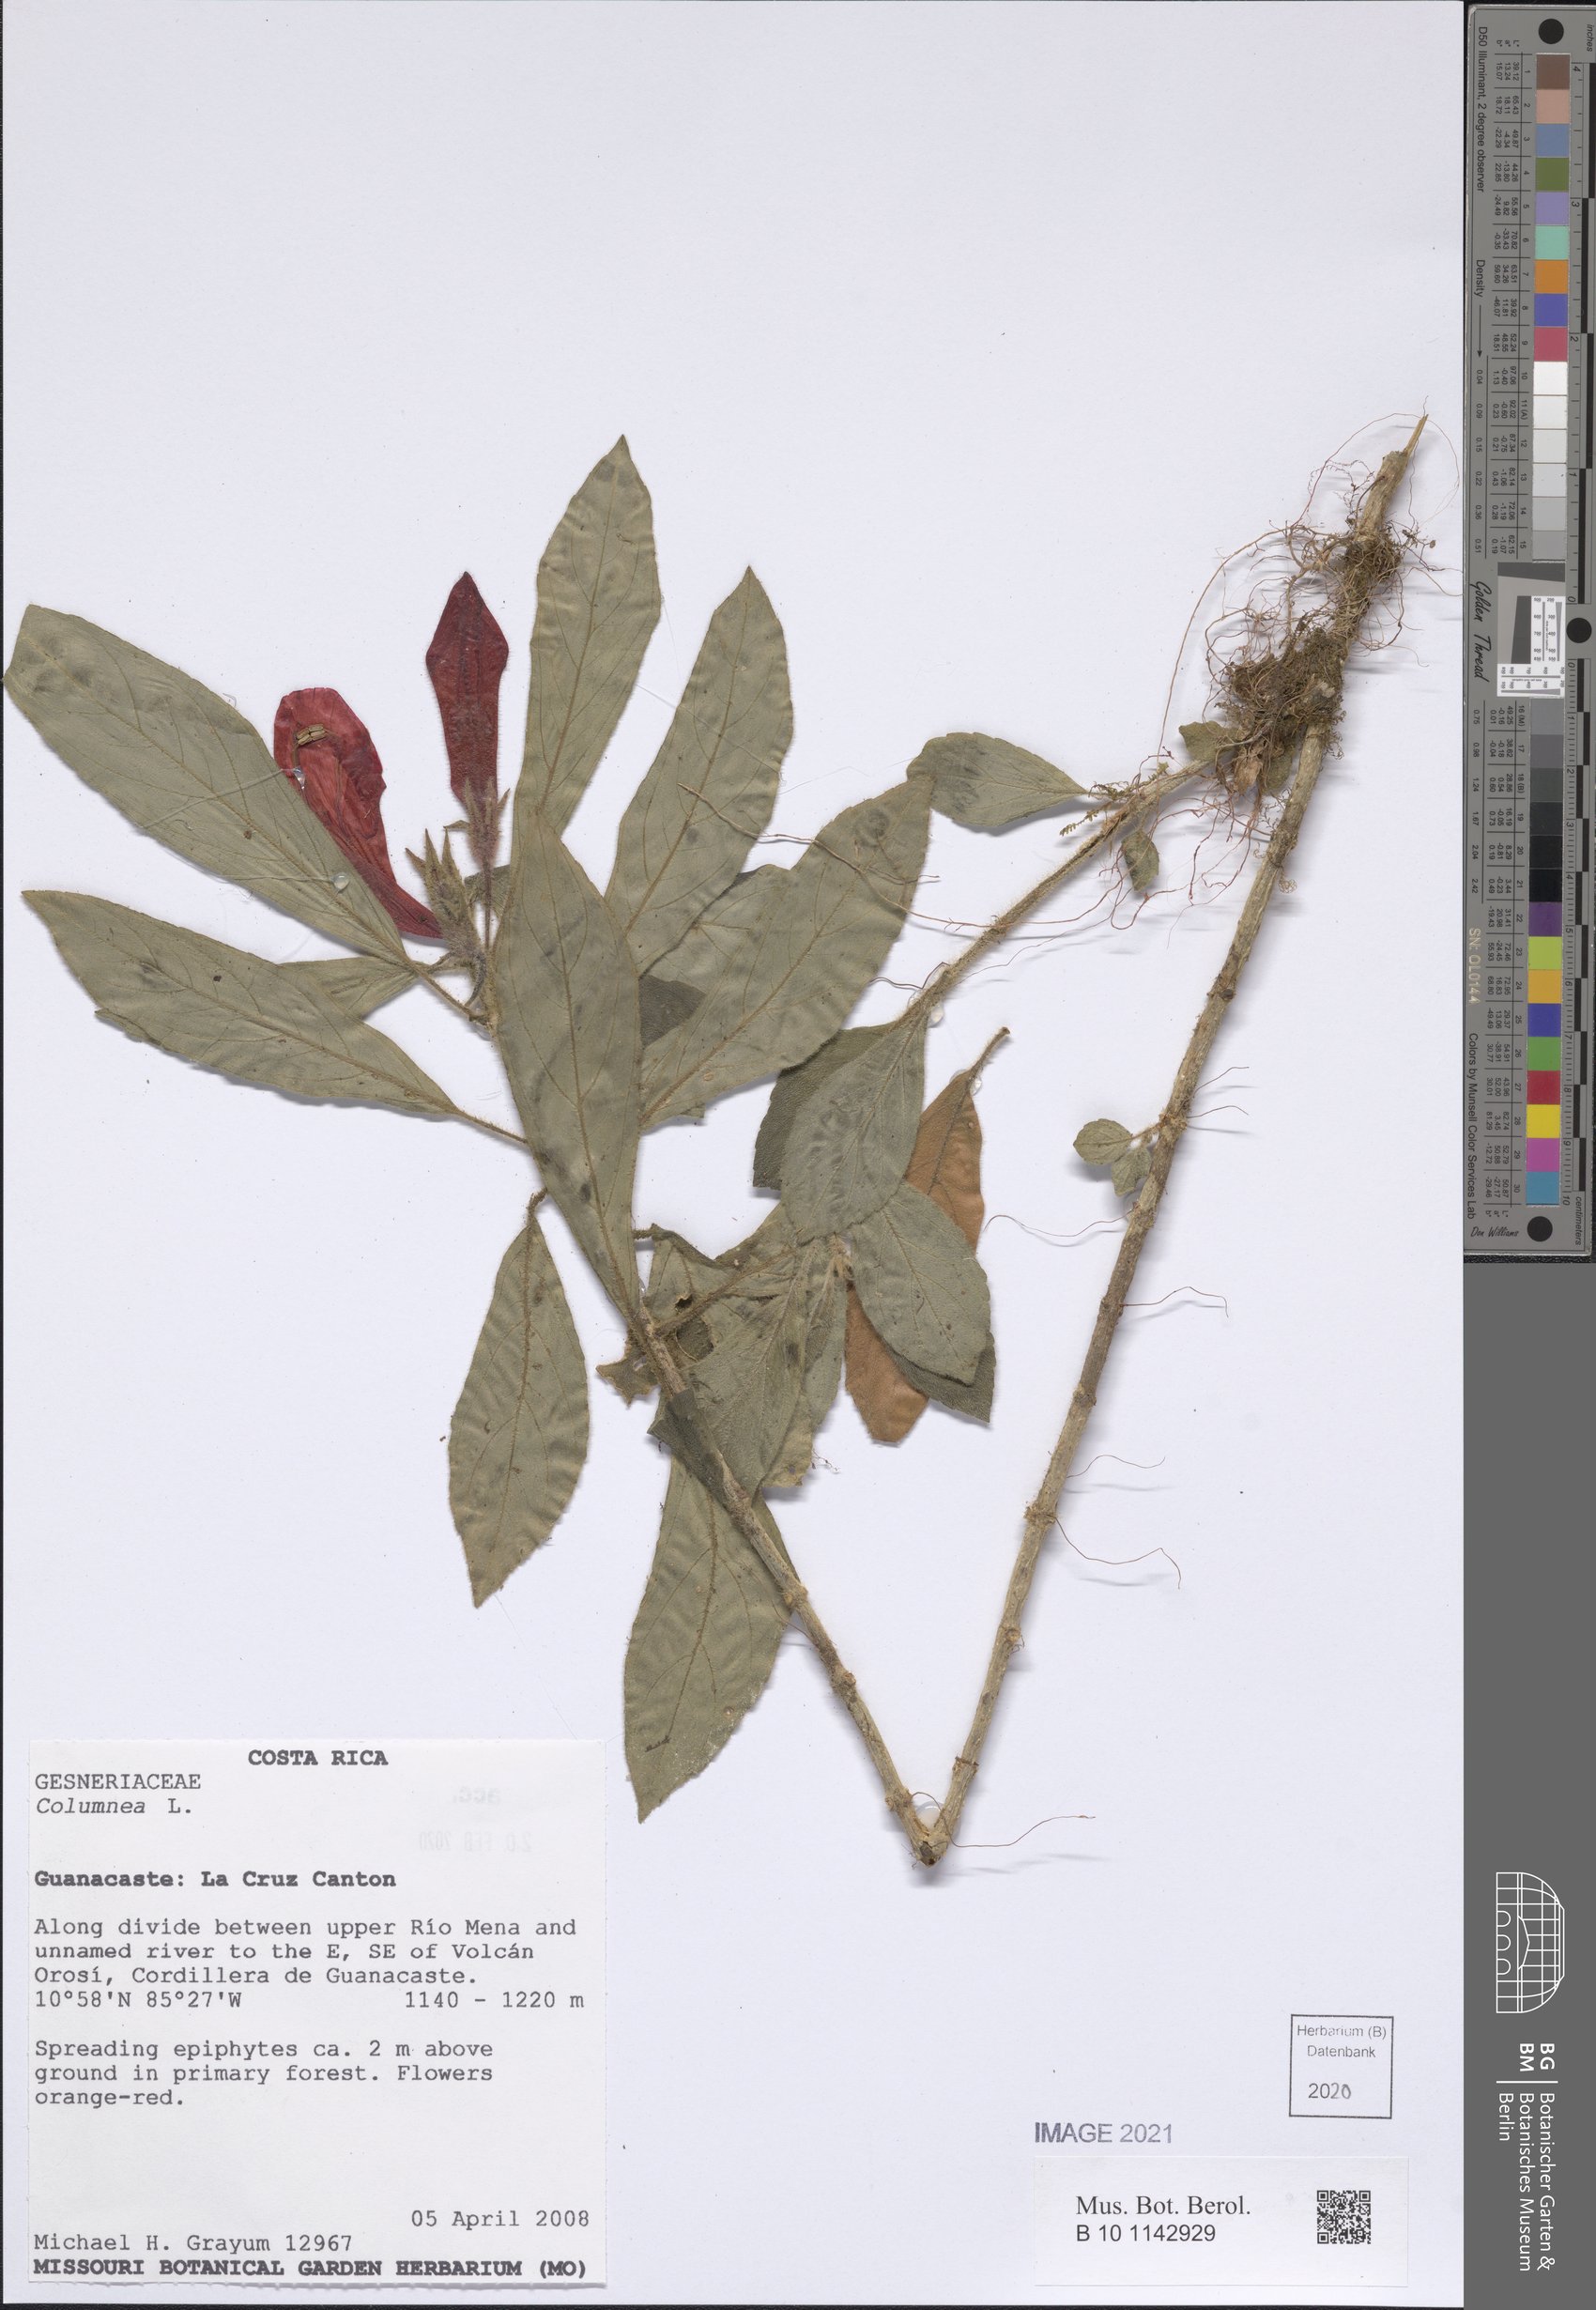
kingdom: Plantae
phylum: Tracheophyta
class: Magnoliopsida
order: Lamiales
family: Gesneriaceae
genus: Columnea
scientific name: Columnea
